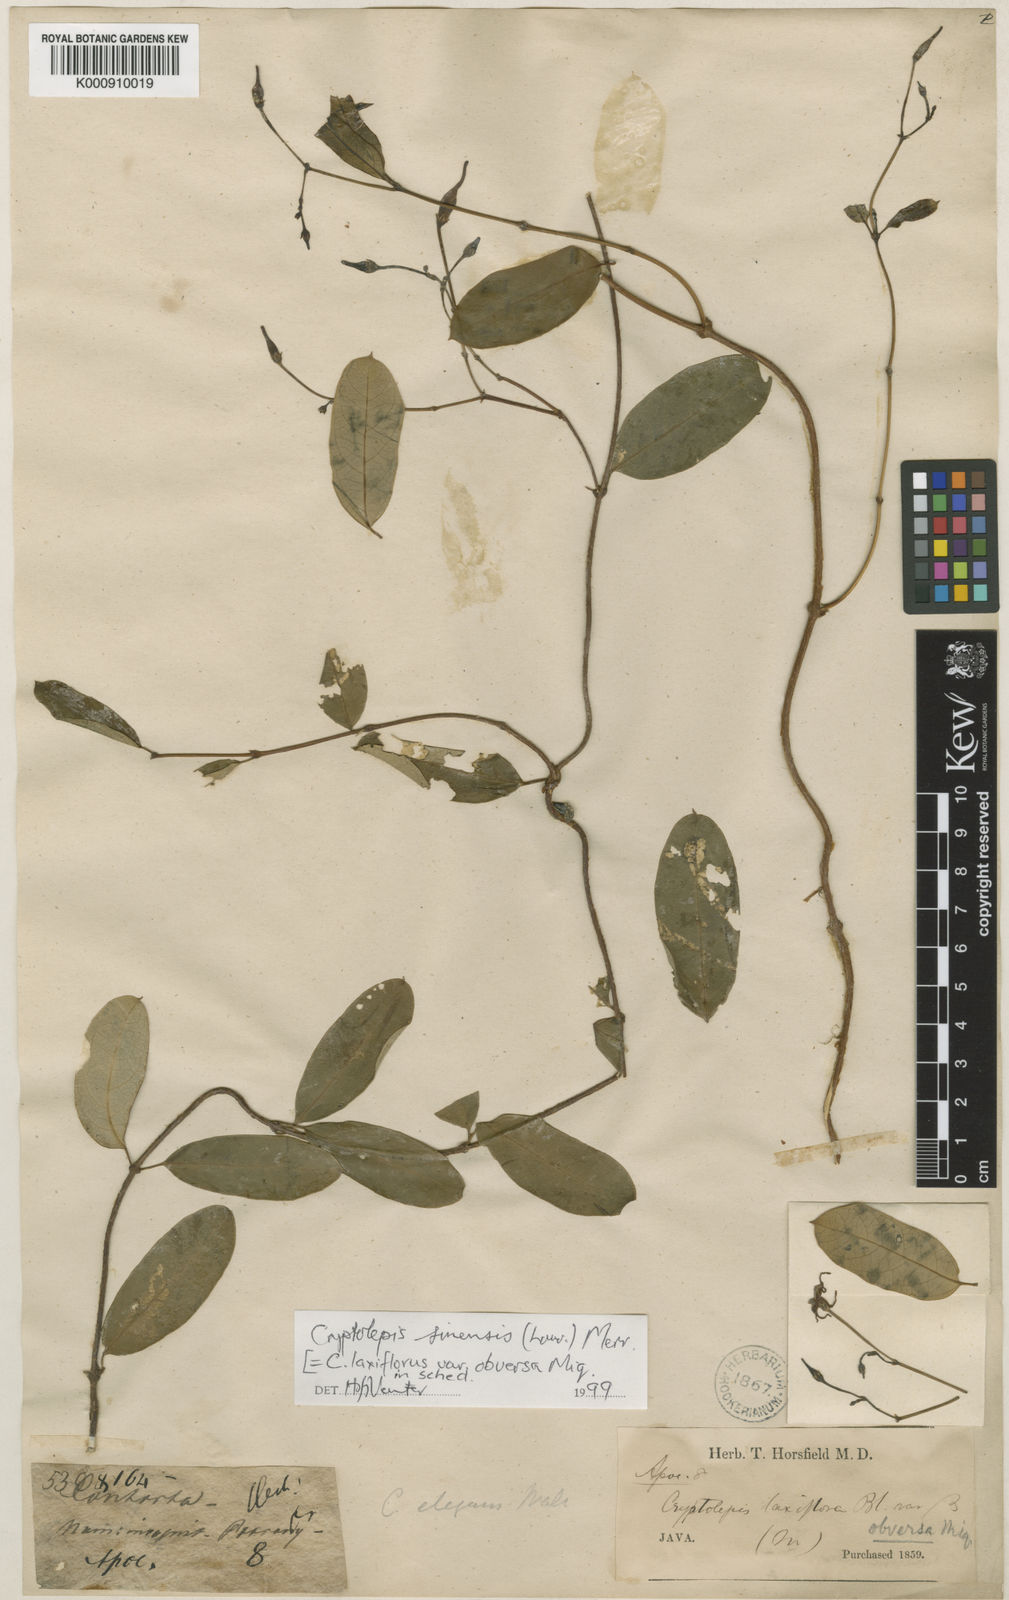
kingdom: Plantae
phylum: Tracheophyta
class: Magnoliopsida
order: Gentianales
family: Apocynaceae
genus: Cryptolepis
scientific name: Cryptolepis sinensis
